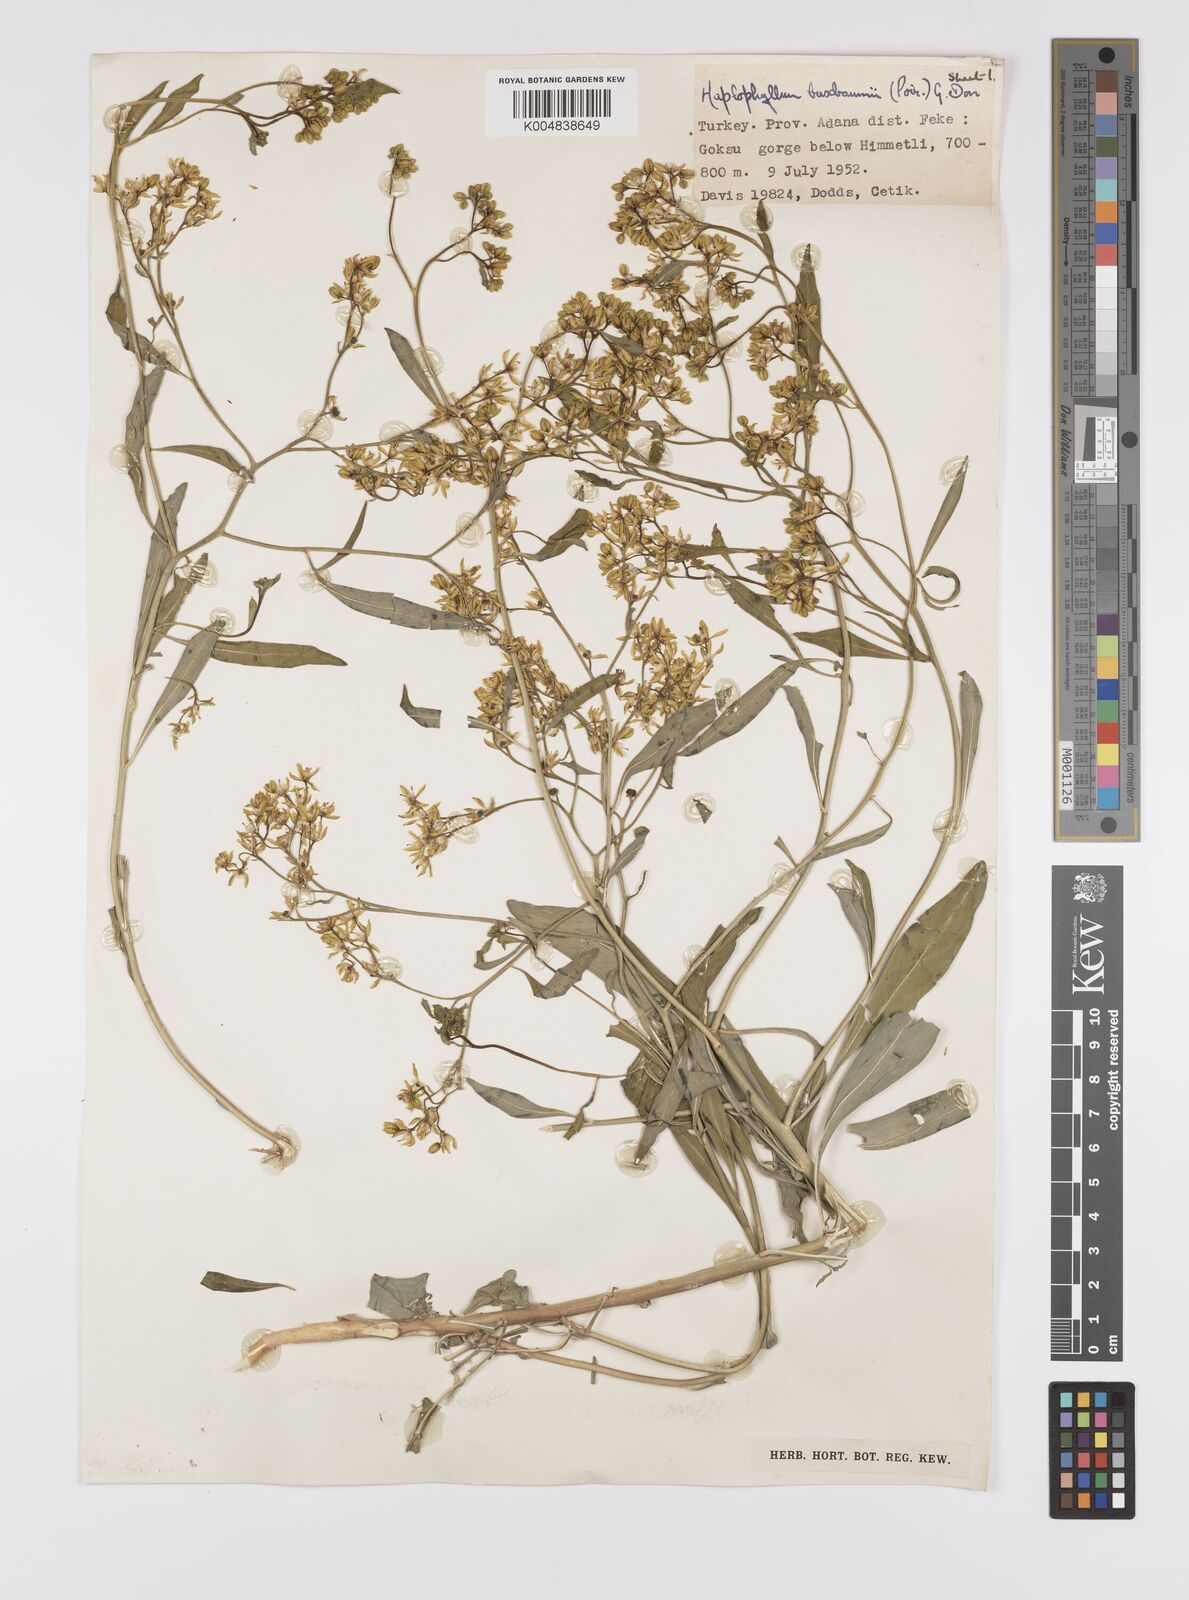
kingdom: Plantae
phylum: Tracheophyta
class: Magnoliopsida
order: Sapindales
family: Rutaceae
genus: Haplophyllum
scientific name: Haplophyllum
